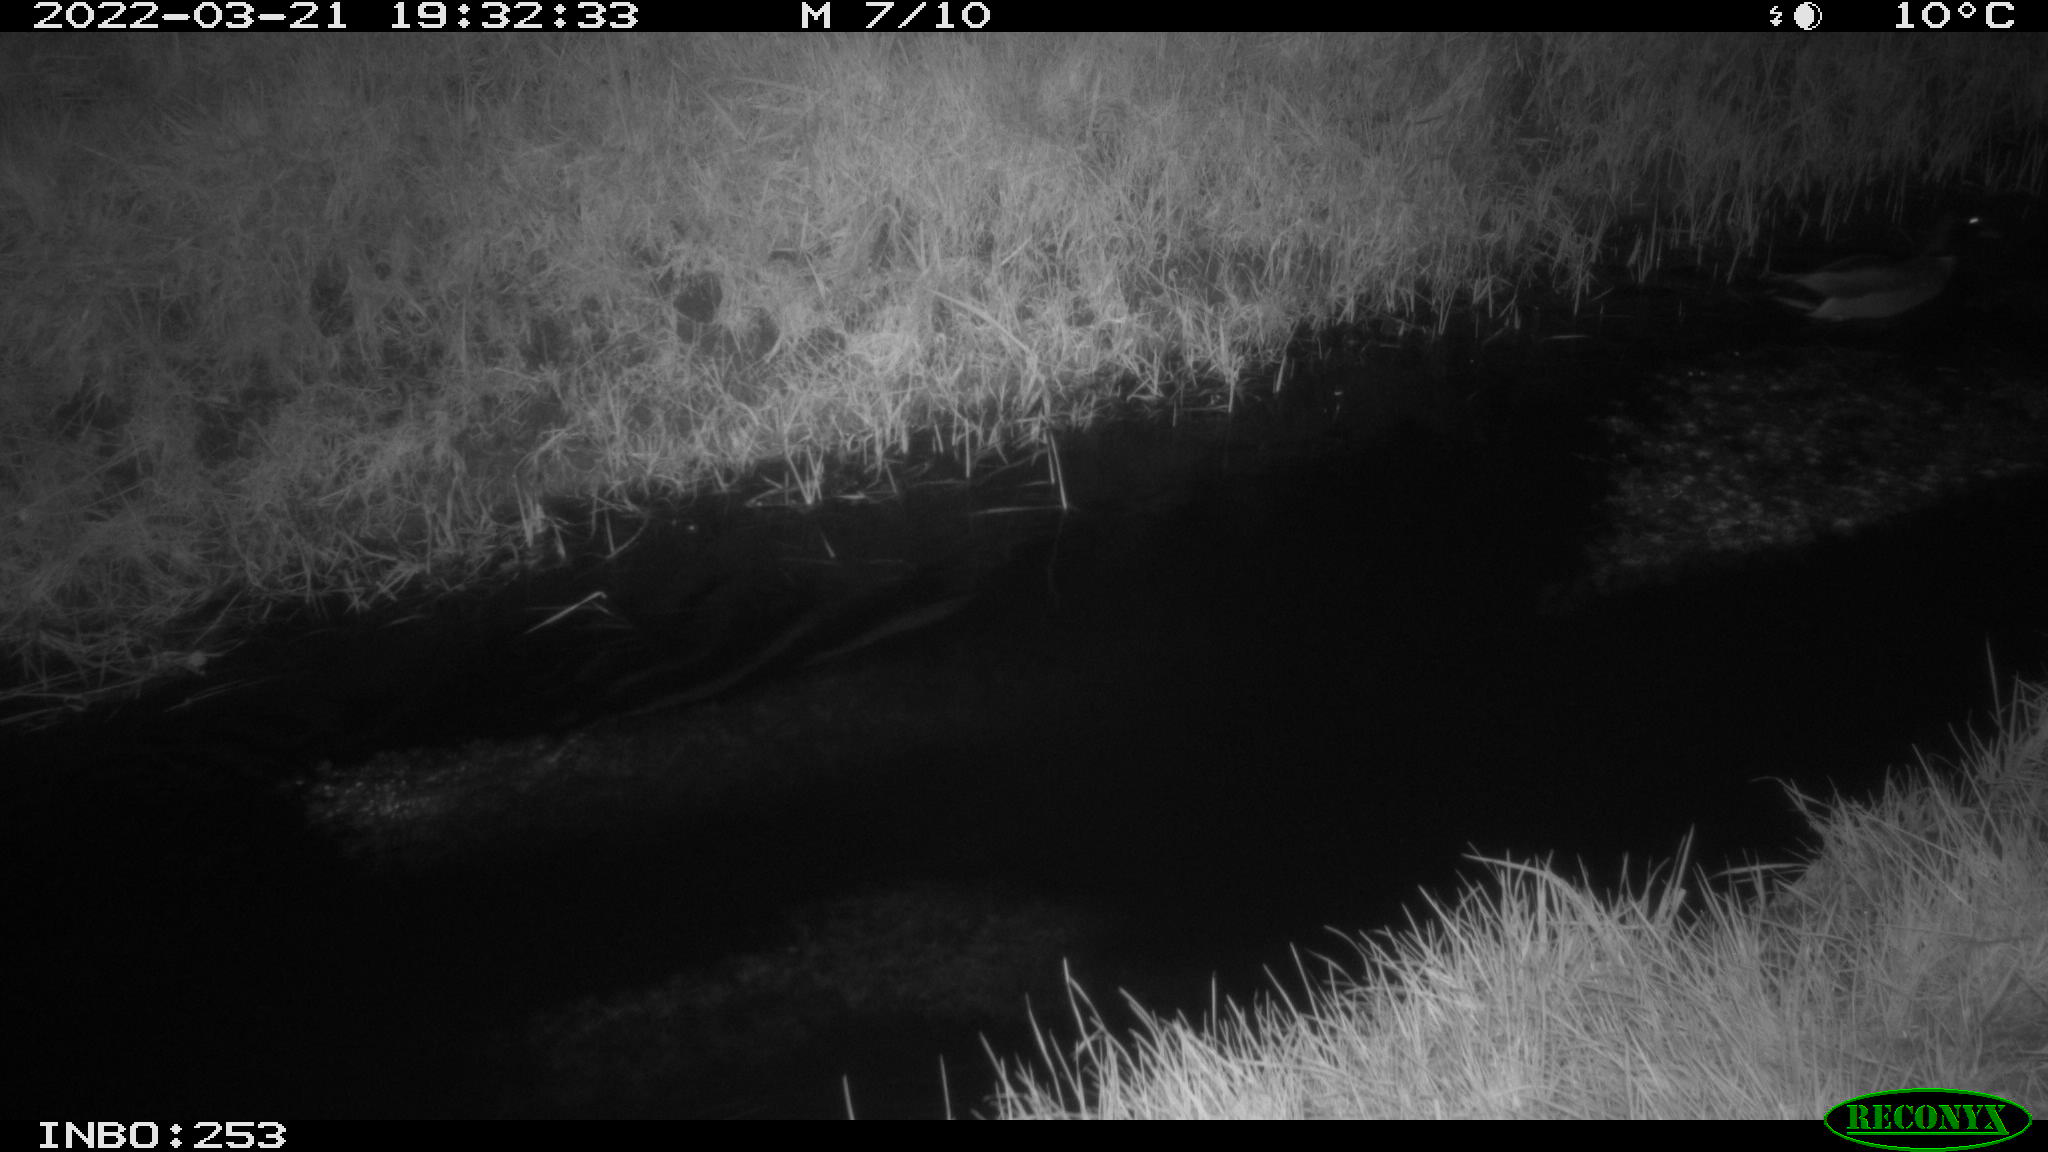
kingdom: Animalia
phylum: Chordata
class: Aves
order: Anseriformes
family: Anatidae
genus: Anas
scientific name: Anas platyrhynchos
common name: Mallard
